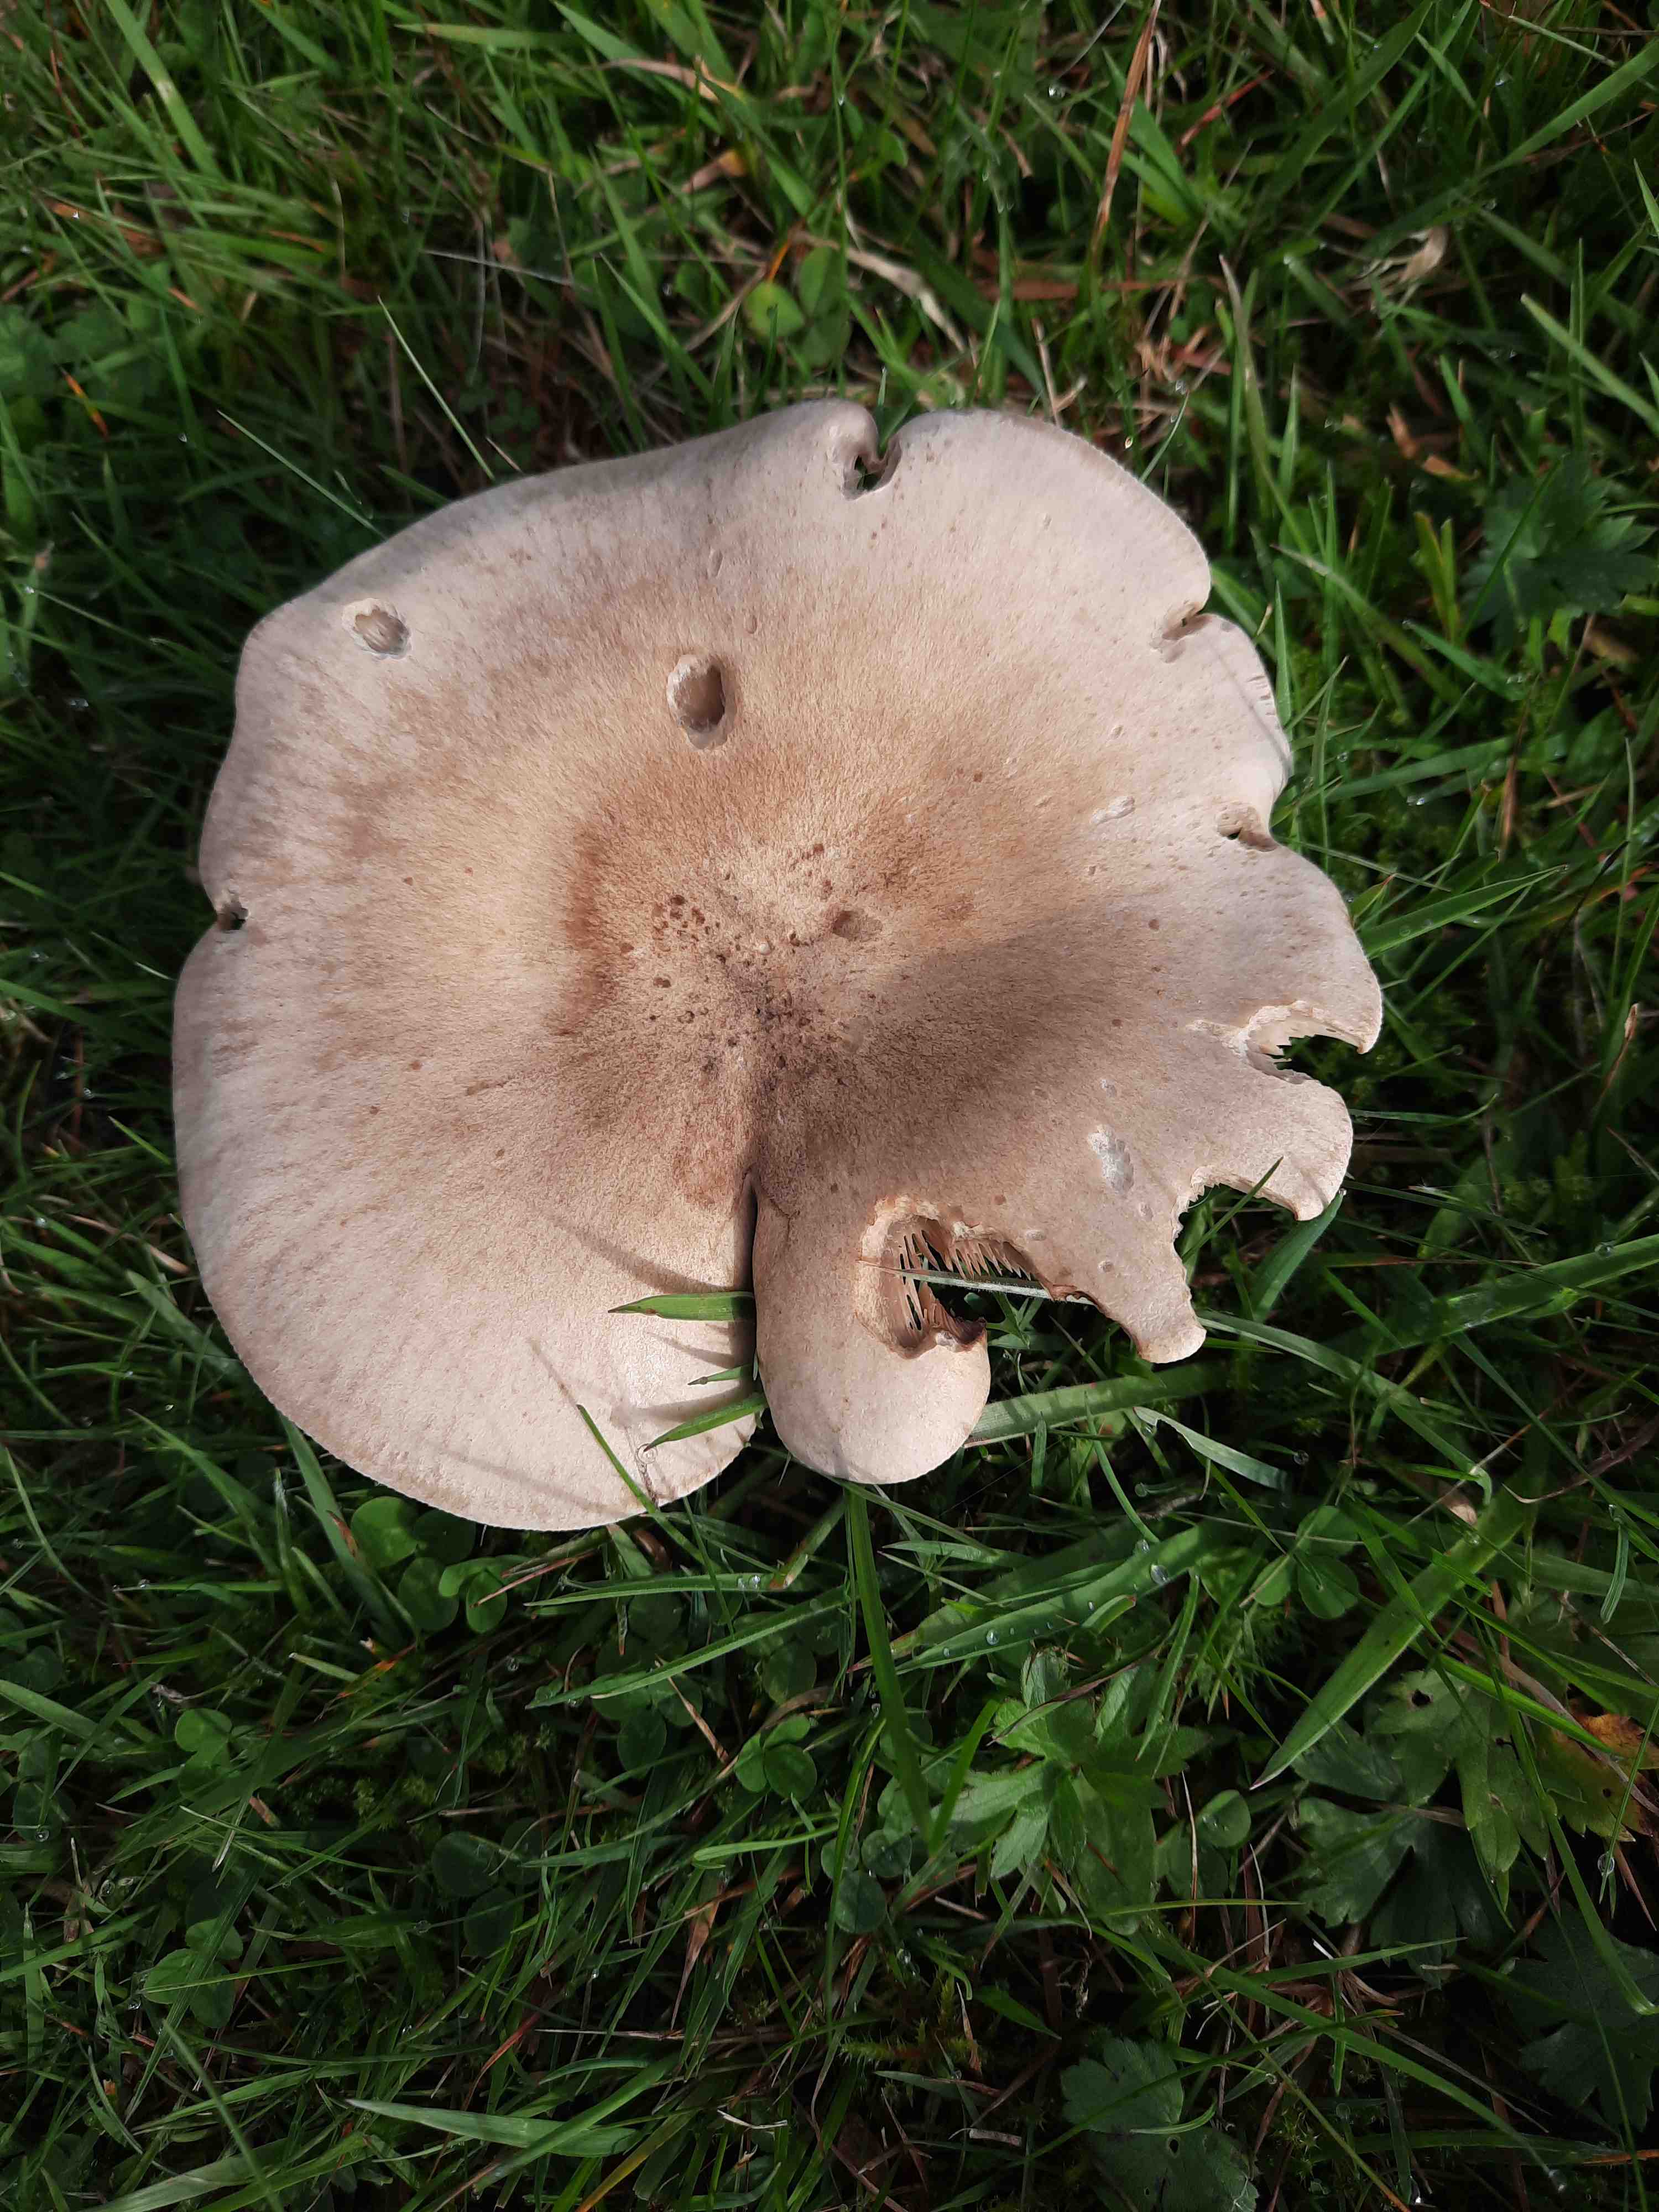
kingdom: Fungi
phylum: Basidiomycota
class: Agaricomycetes
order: Agaricales
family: Tricholomataceae
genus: Lepista
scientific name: Lepista panaeolus
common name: marmoreret hekseringshat
